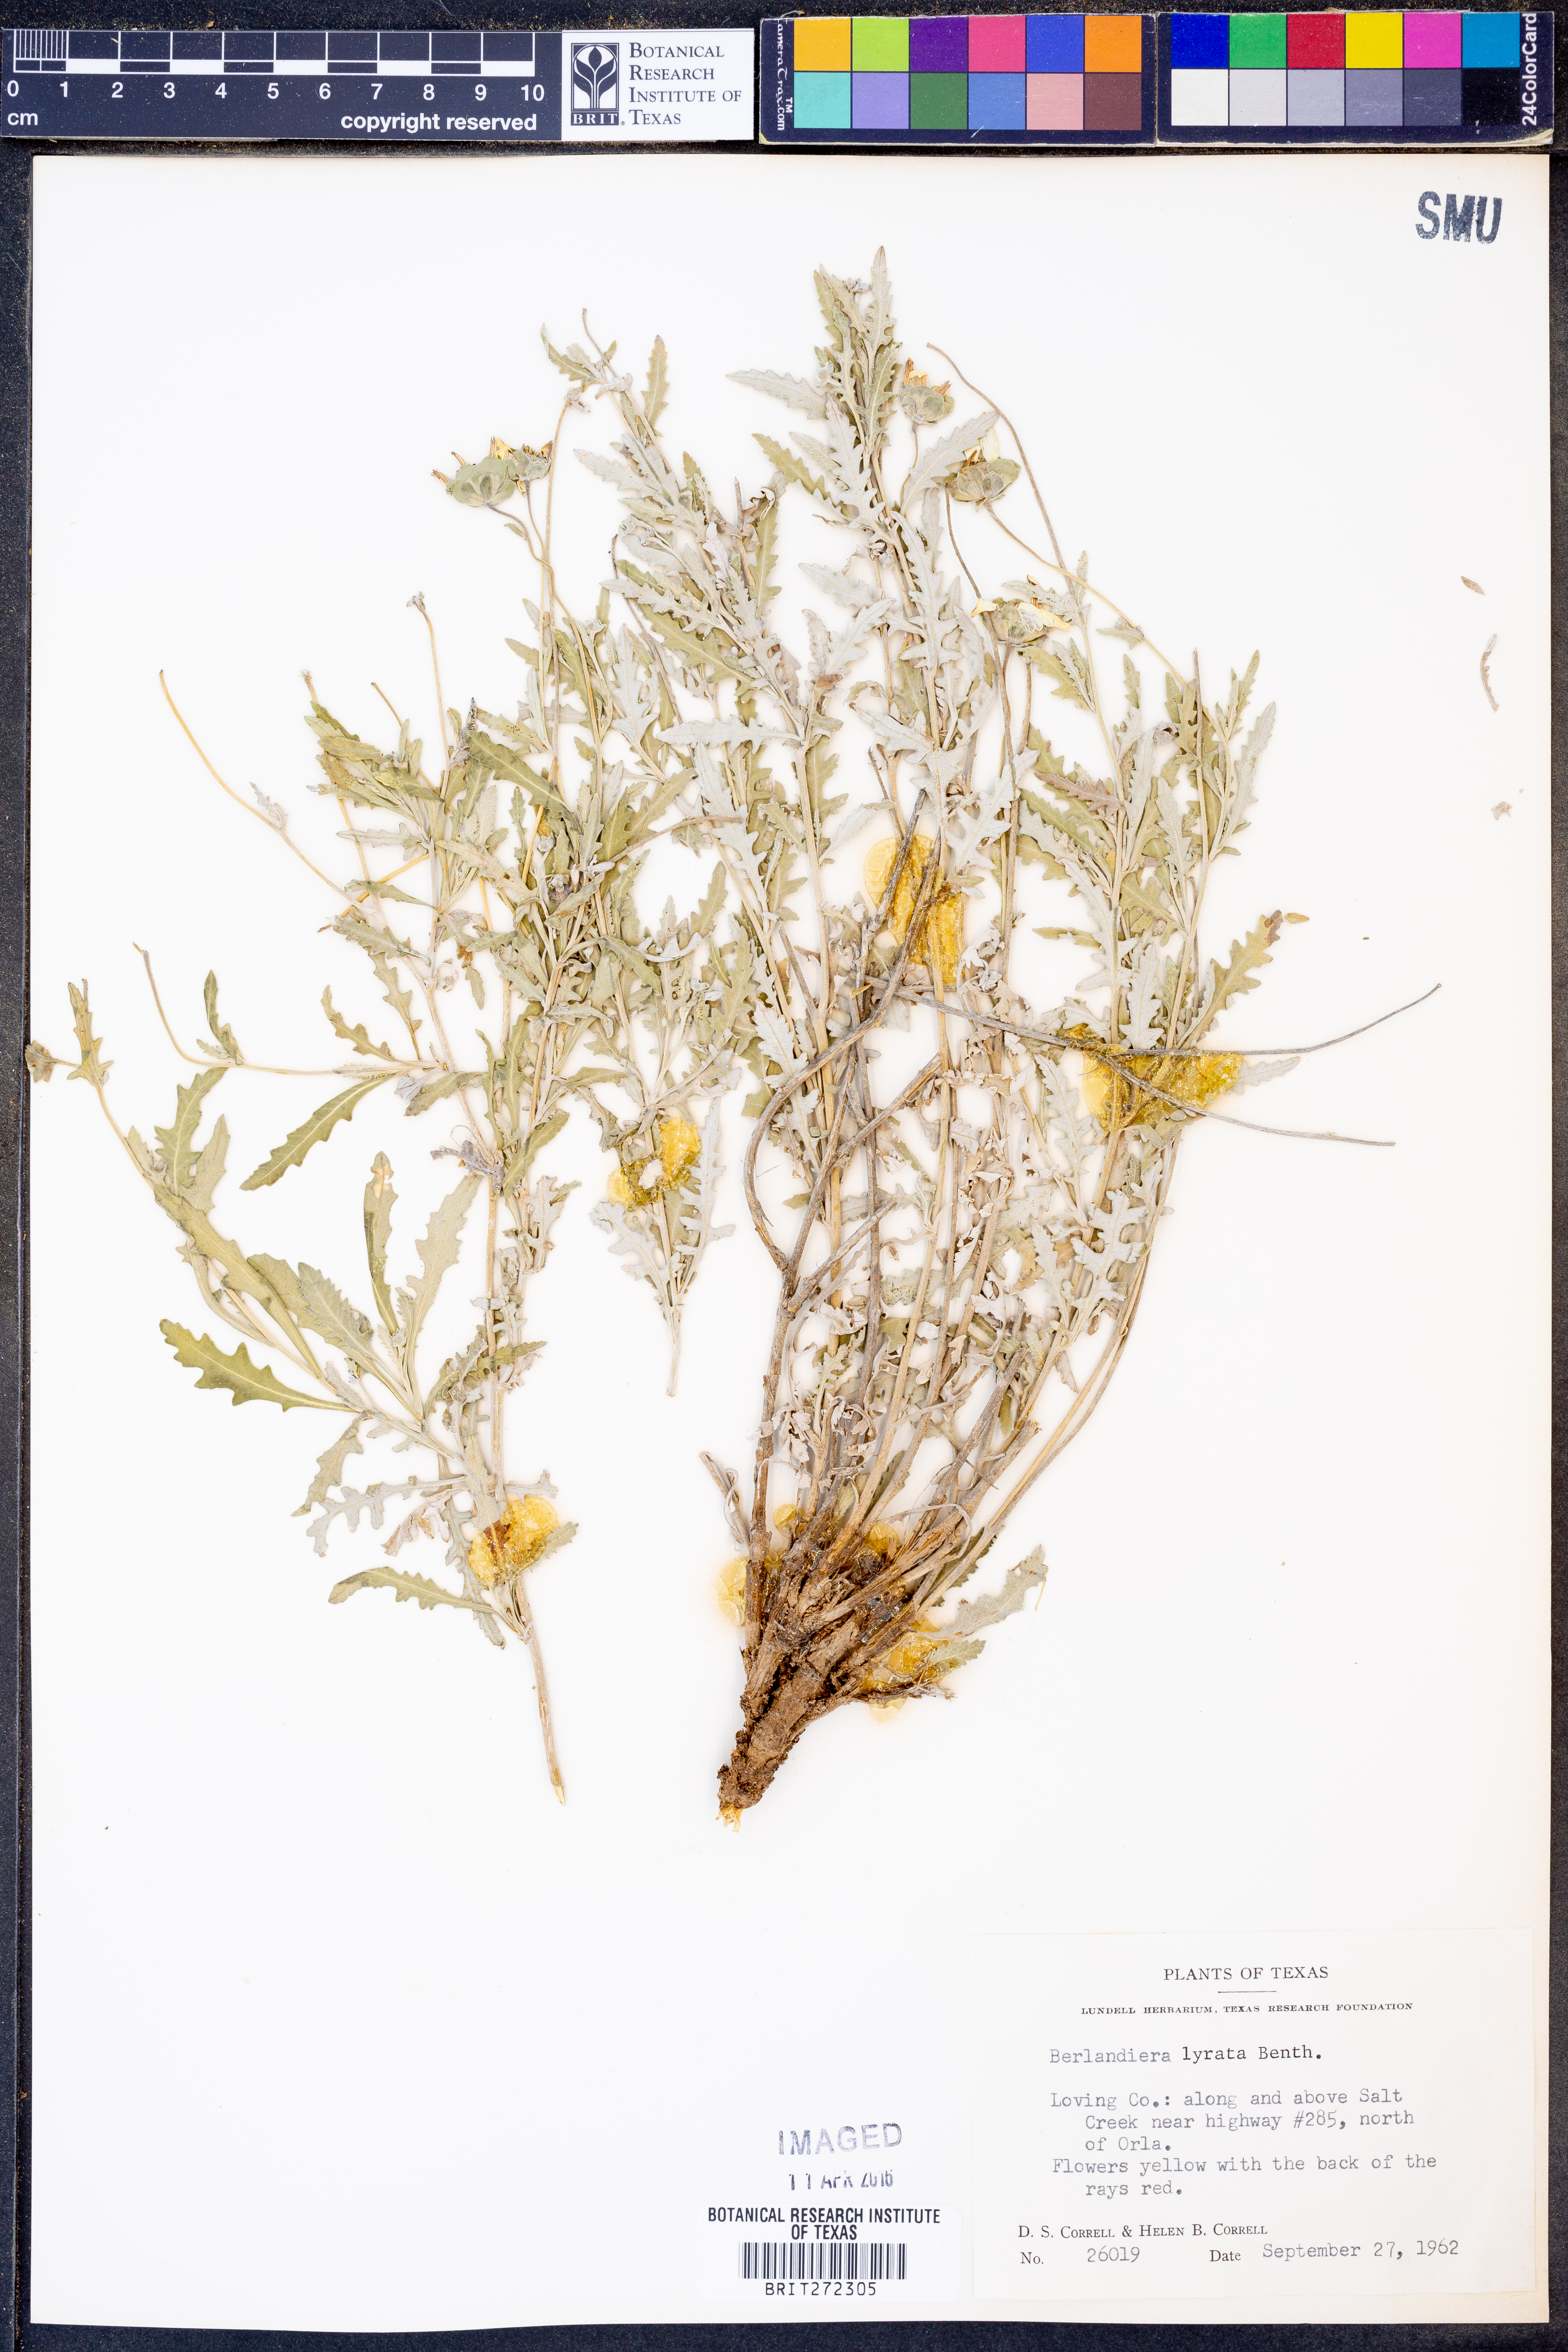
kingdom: Plantae
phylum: Tracheophyta
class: Magnoliopsida
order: Asterales
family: Asteraceae
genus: Berlandiera
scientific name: Berlandiera lyrata
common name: Chocolate-flower
